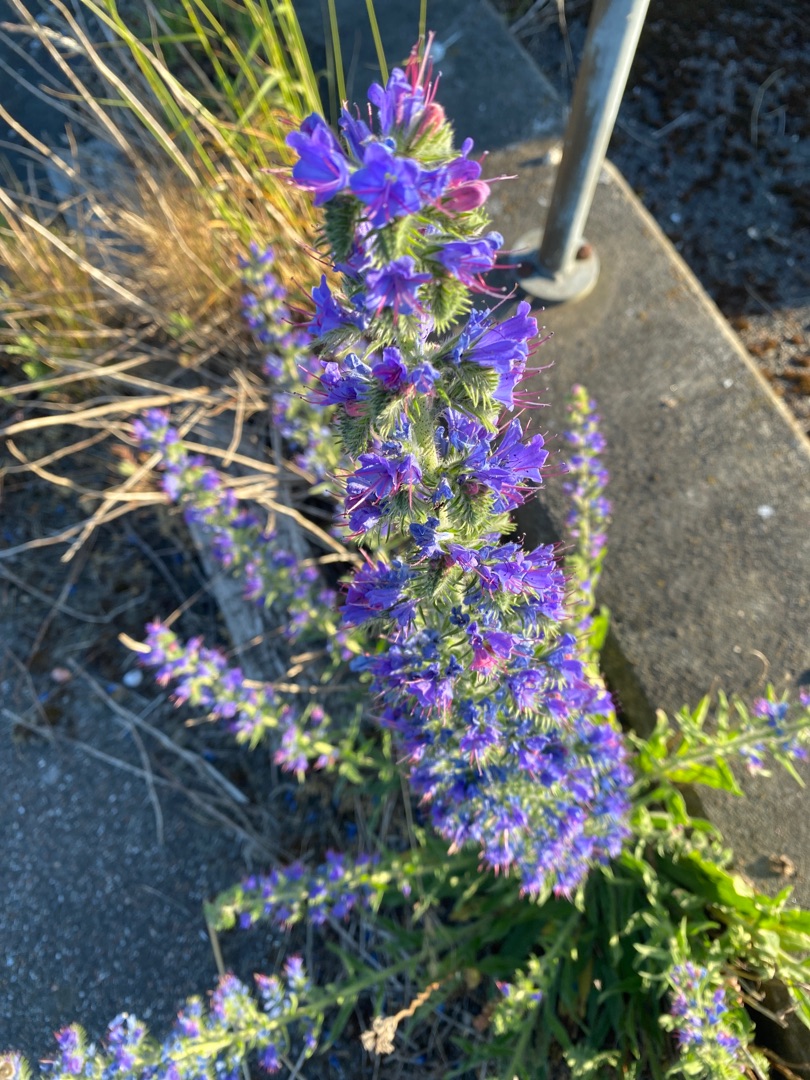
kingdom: Plantae
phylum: Tracheophyta
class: Magnoliopsida
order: Boraginales
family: Boraginaceae
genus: Echium
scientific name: Echium vulgare
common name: Slangehoved
